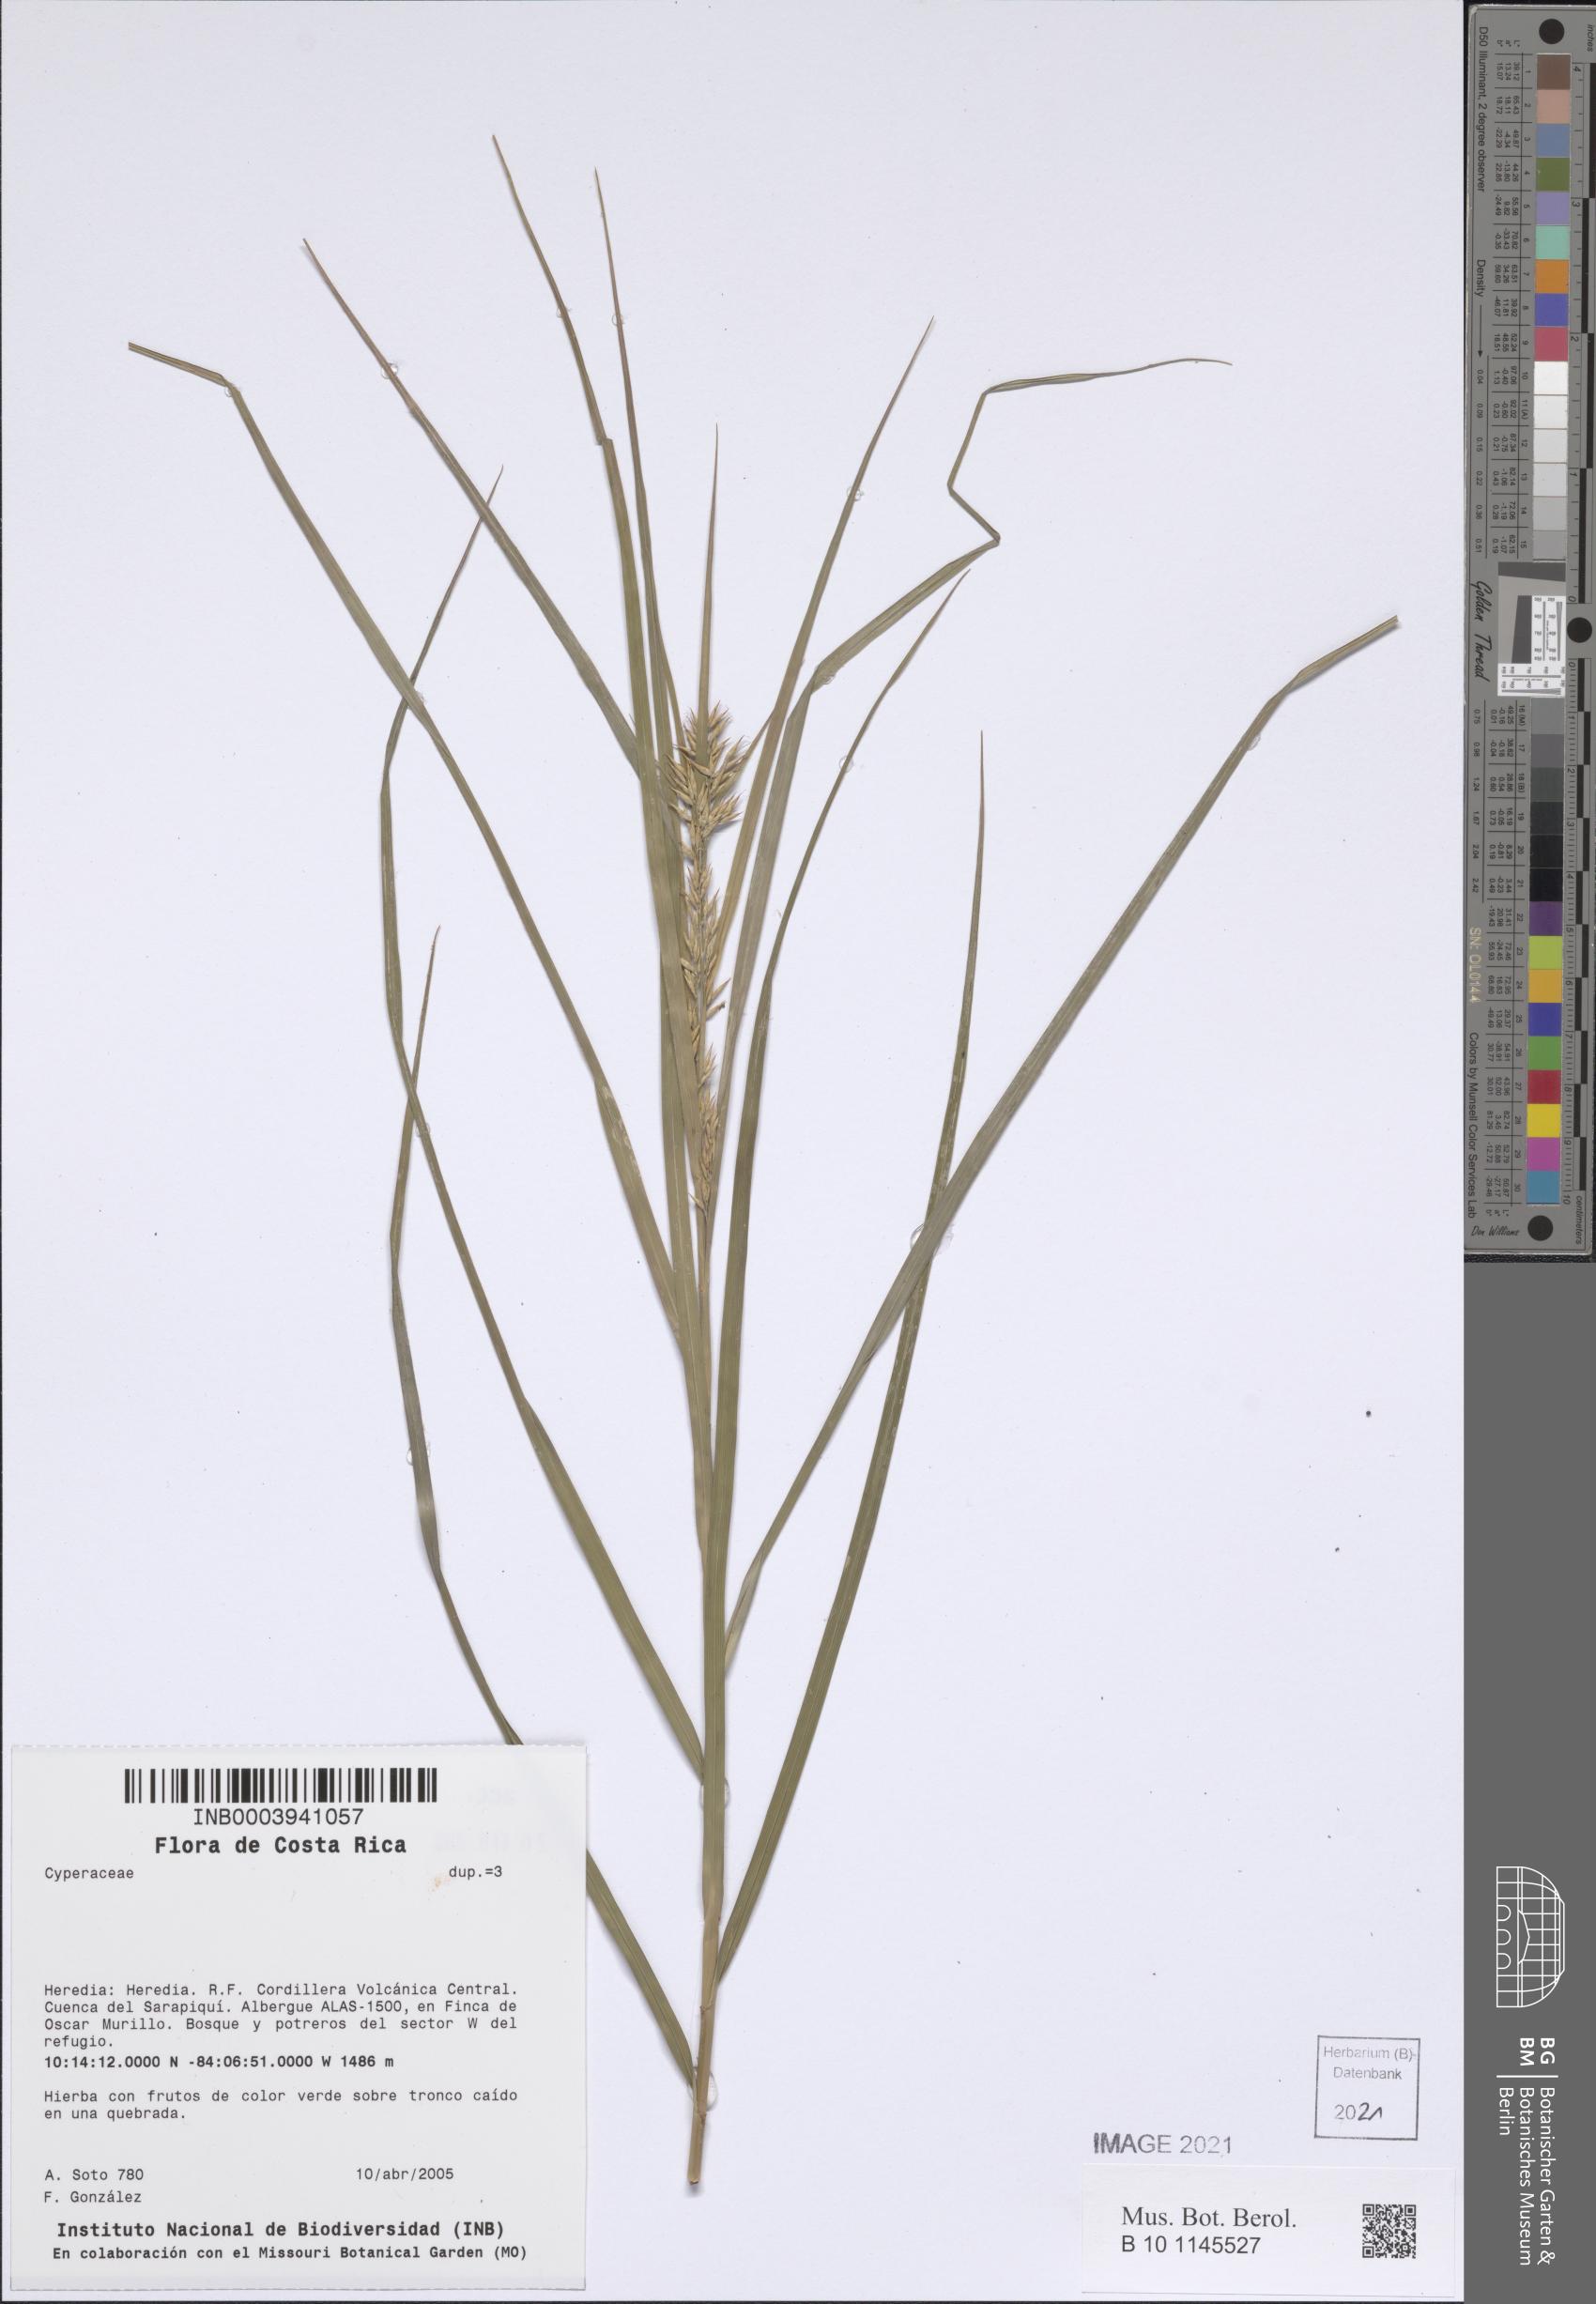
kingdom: Plantae
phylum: Tracheophyta
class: Liliopsida
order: Poales
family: Cyperaceae
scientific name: Cyperaceae
